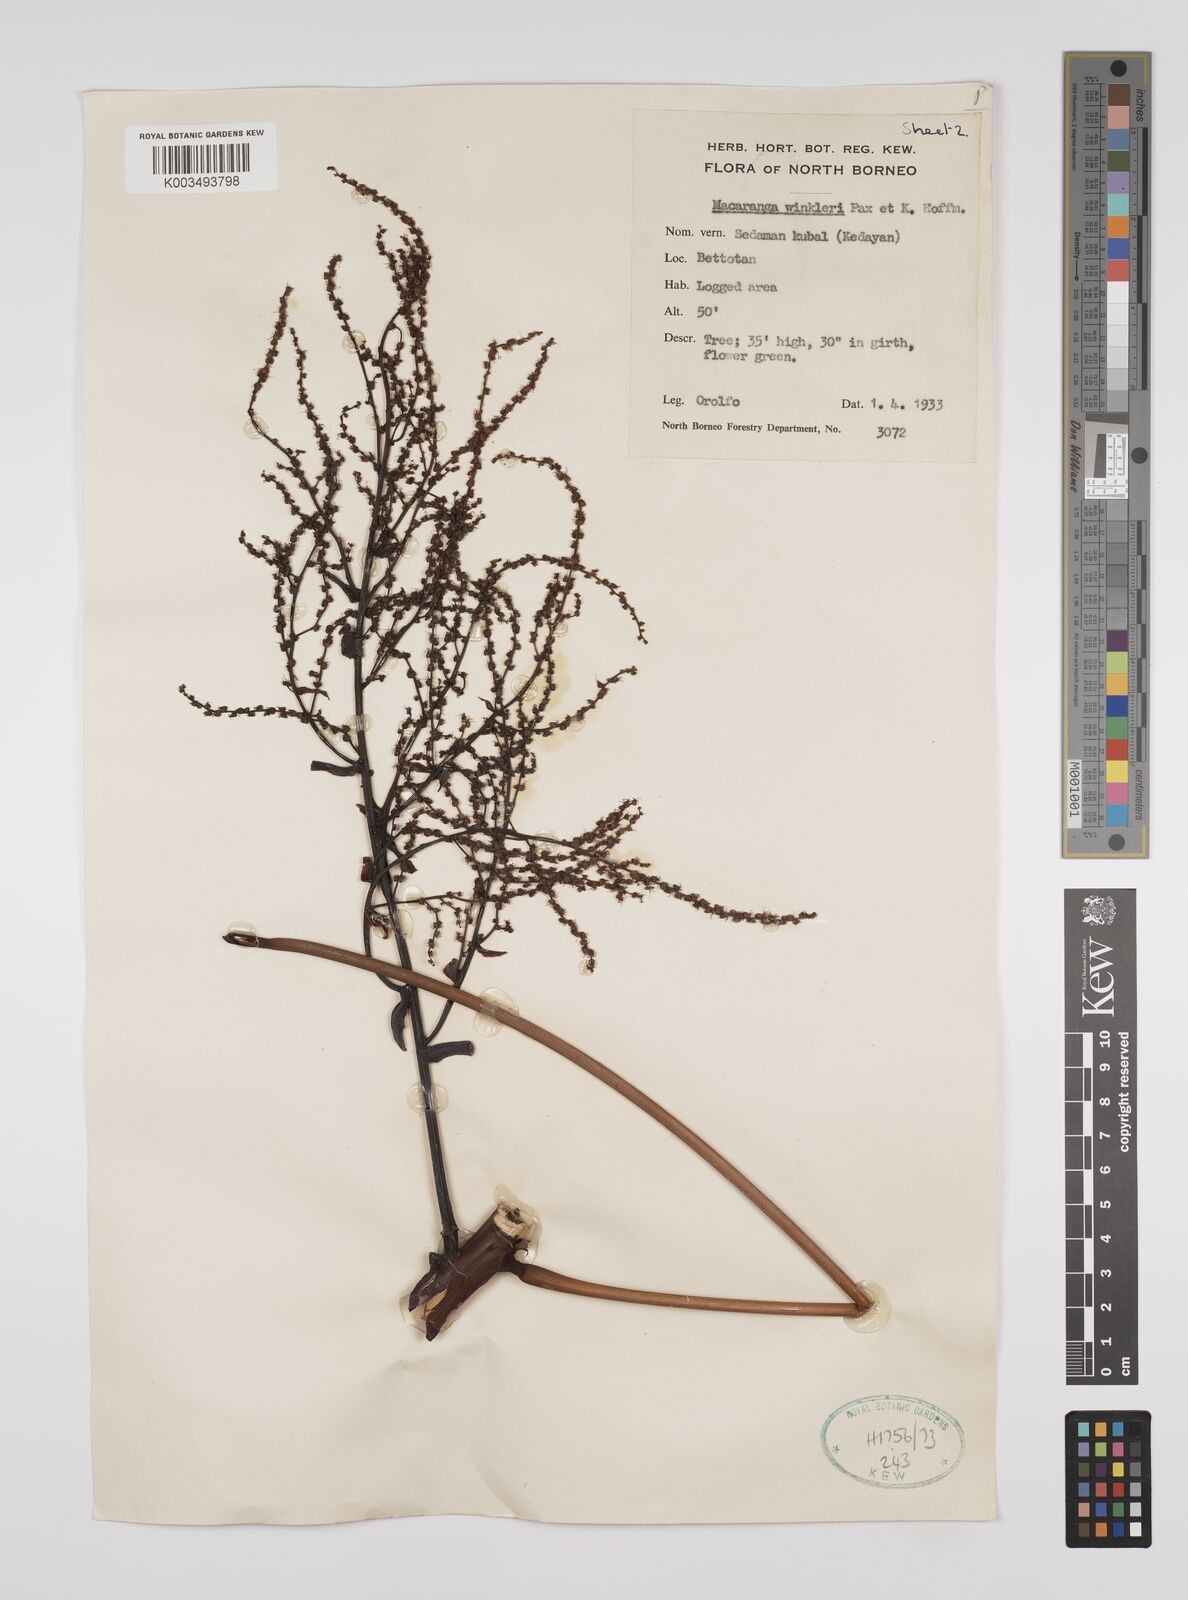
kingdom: Plantae
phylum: Tracheophyta
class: Magnoliopsida
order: Malpighiales
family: Euphorbiaceae
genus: Macaranga
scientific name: Macaranga winkleri
